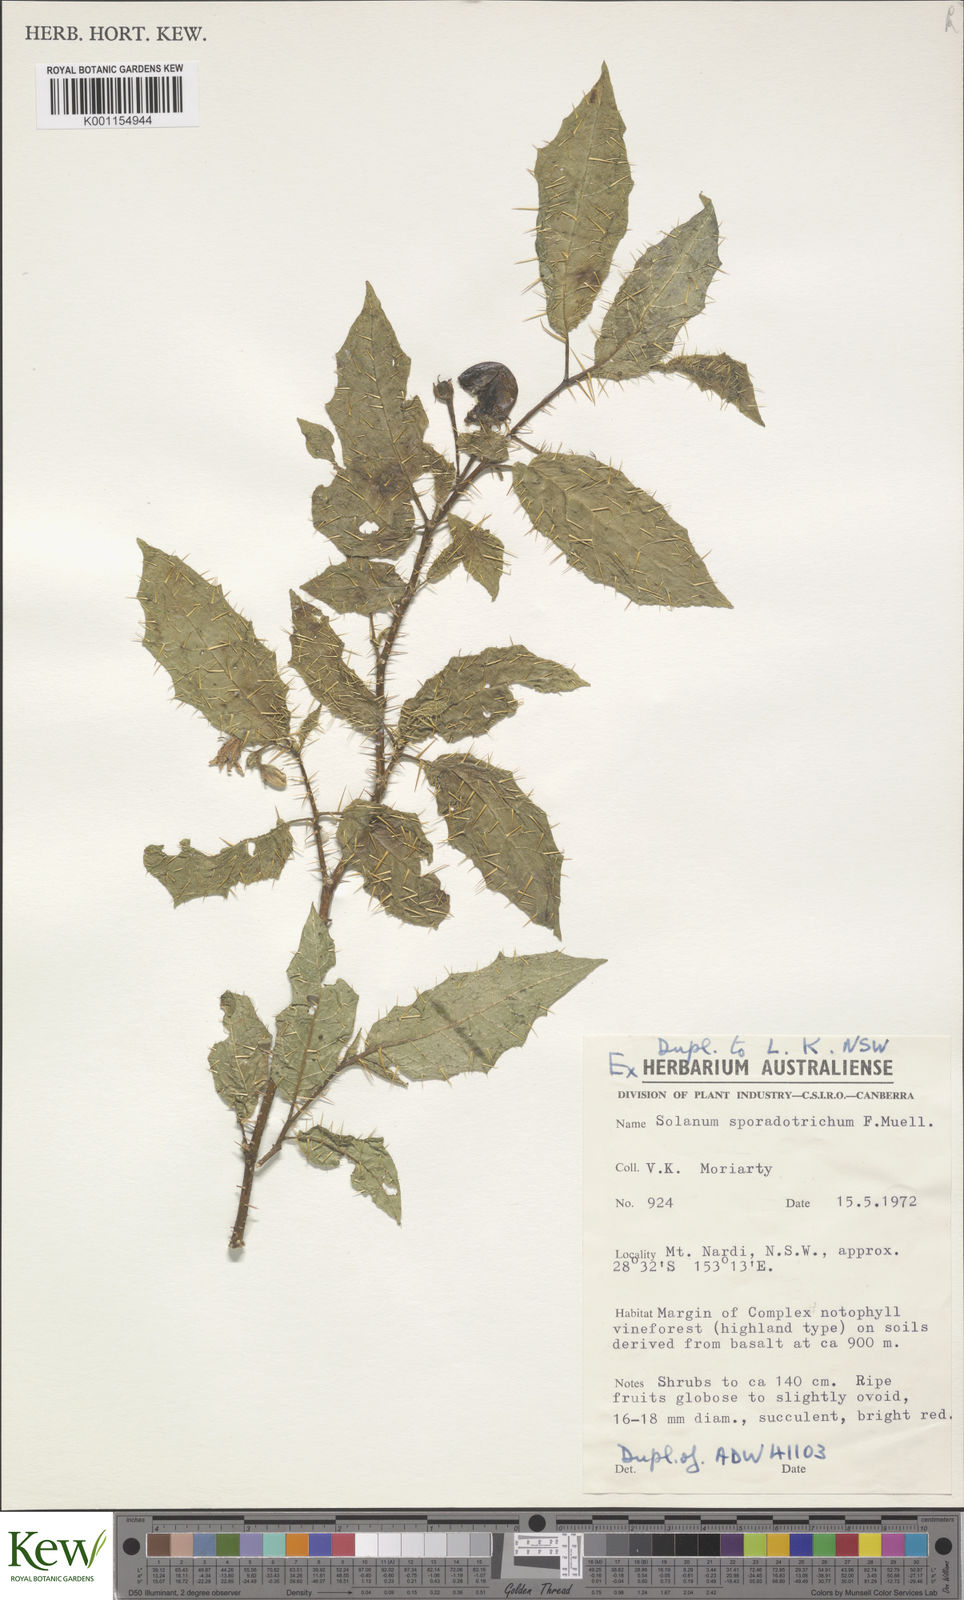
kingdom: Plantae
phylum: Tracheophyta
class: Magnoliopsida
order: Solanales
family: Solanaceae
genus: Solanum
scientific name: Solanum sporadotrichum
